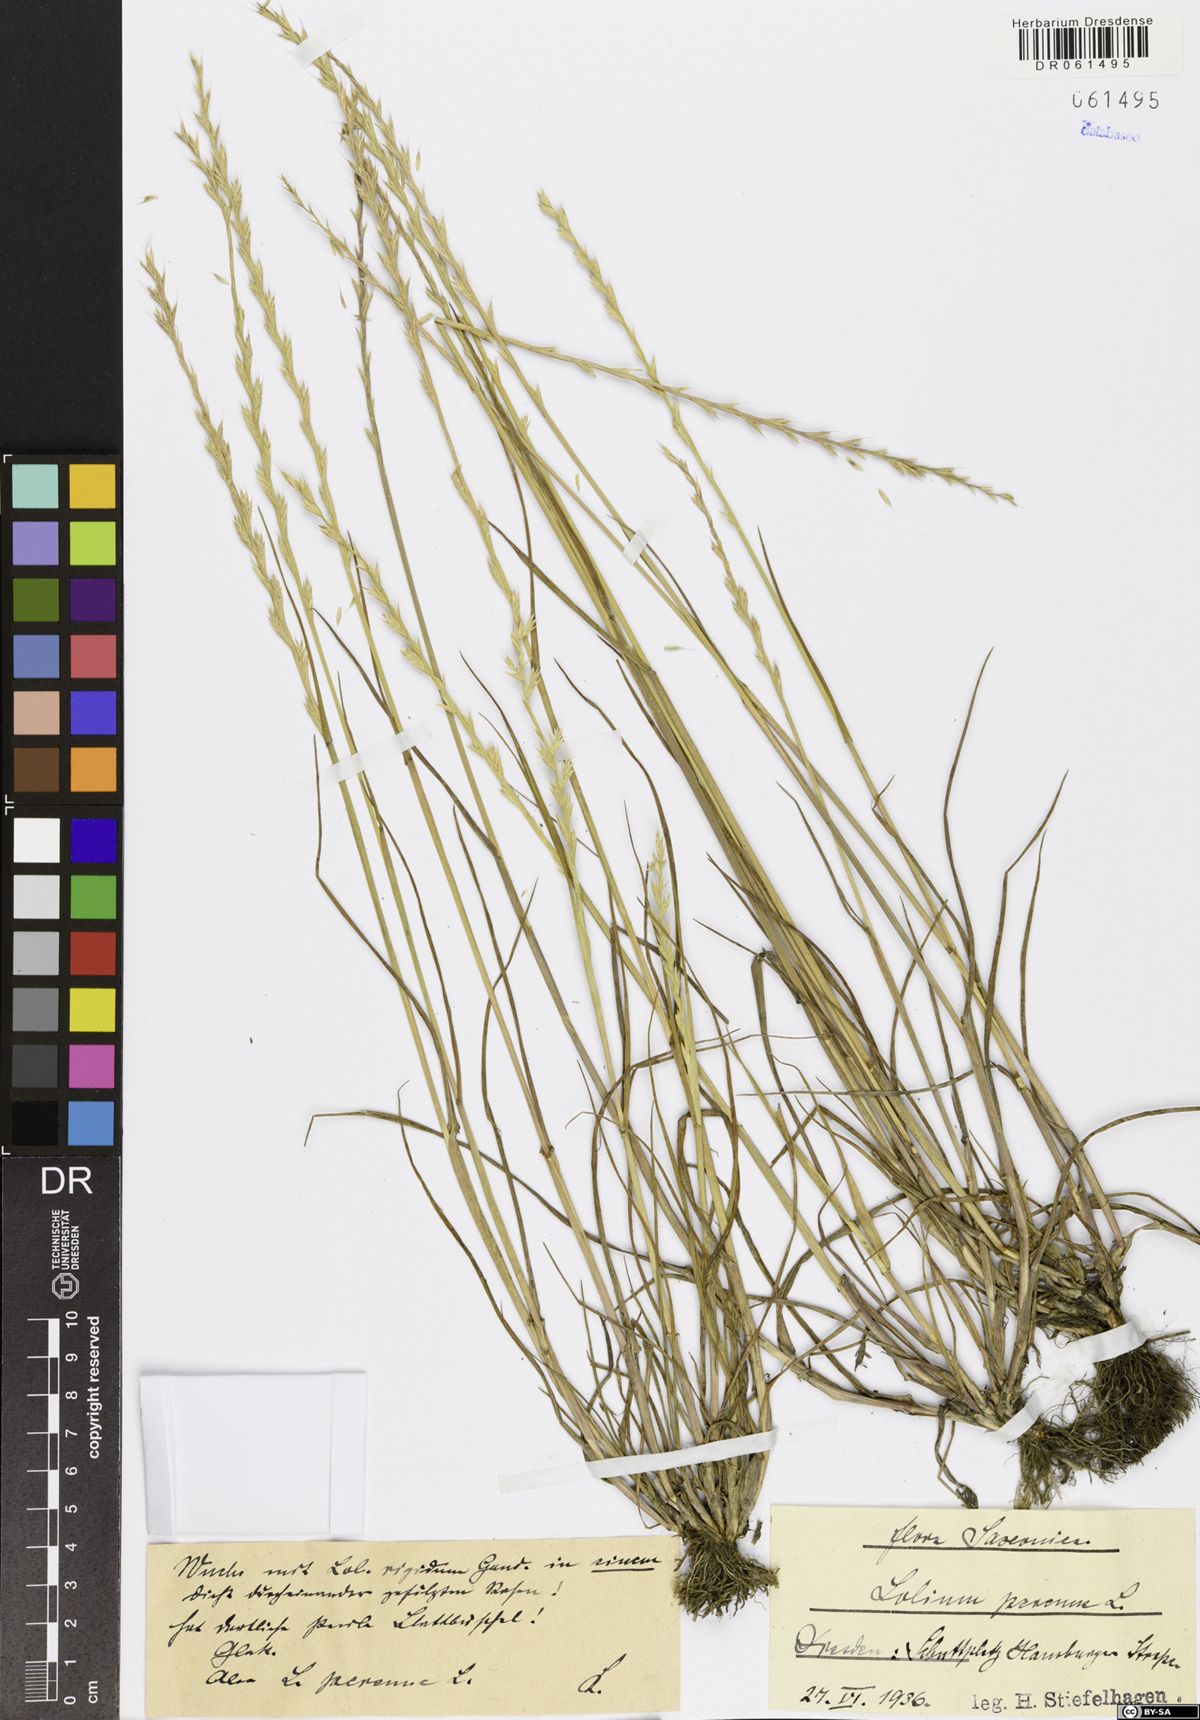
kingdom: Plantae
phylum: Tracheophyta
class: Liliopsida
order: Poales
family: Poaceae
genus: Lolium
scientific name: Lolium perenne
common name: Perennial ryegrass
